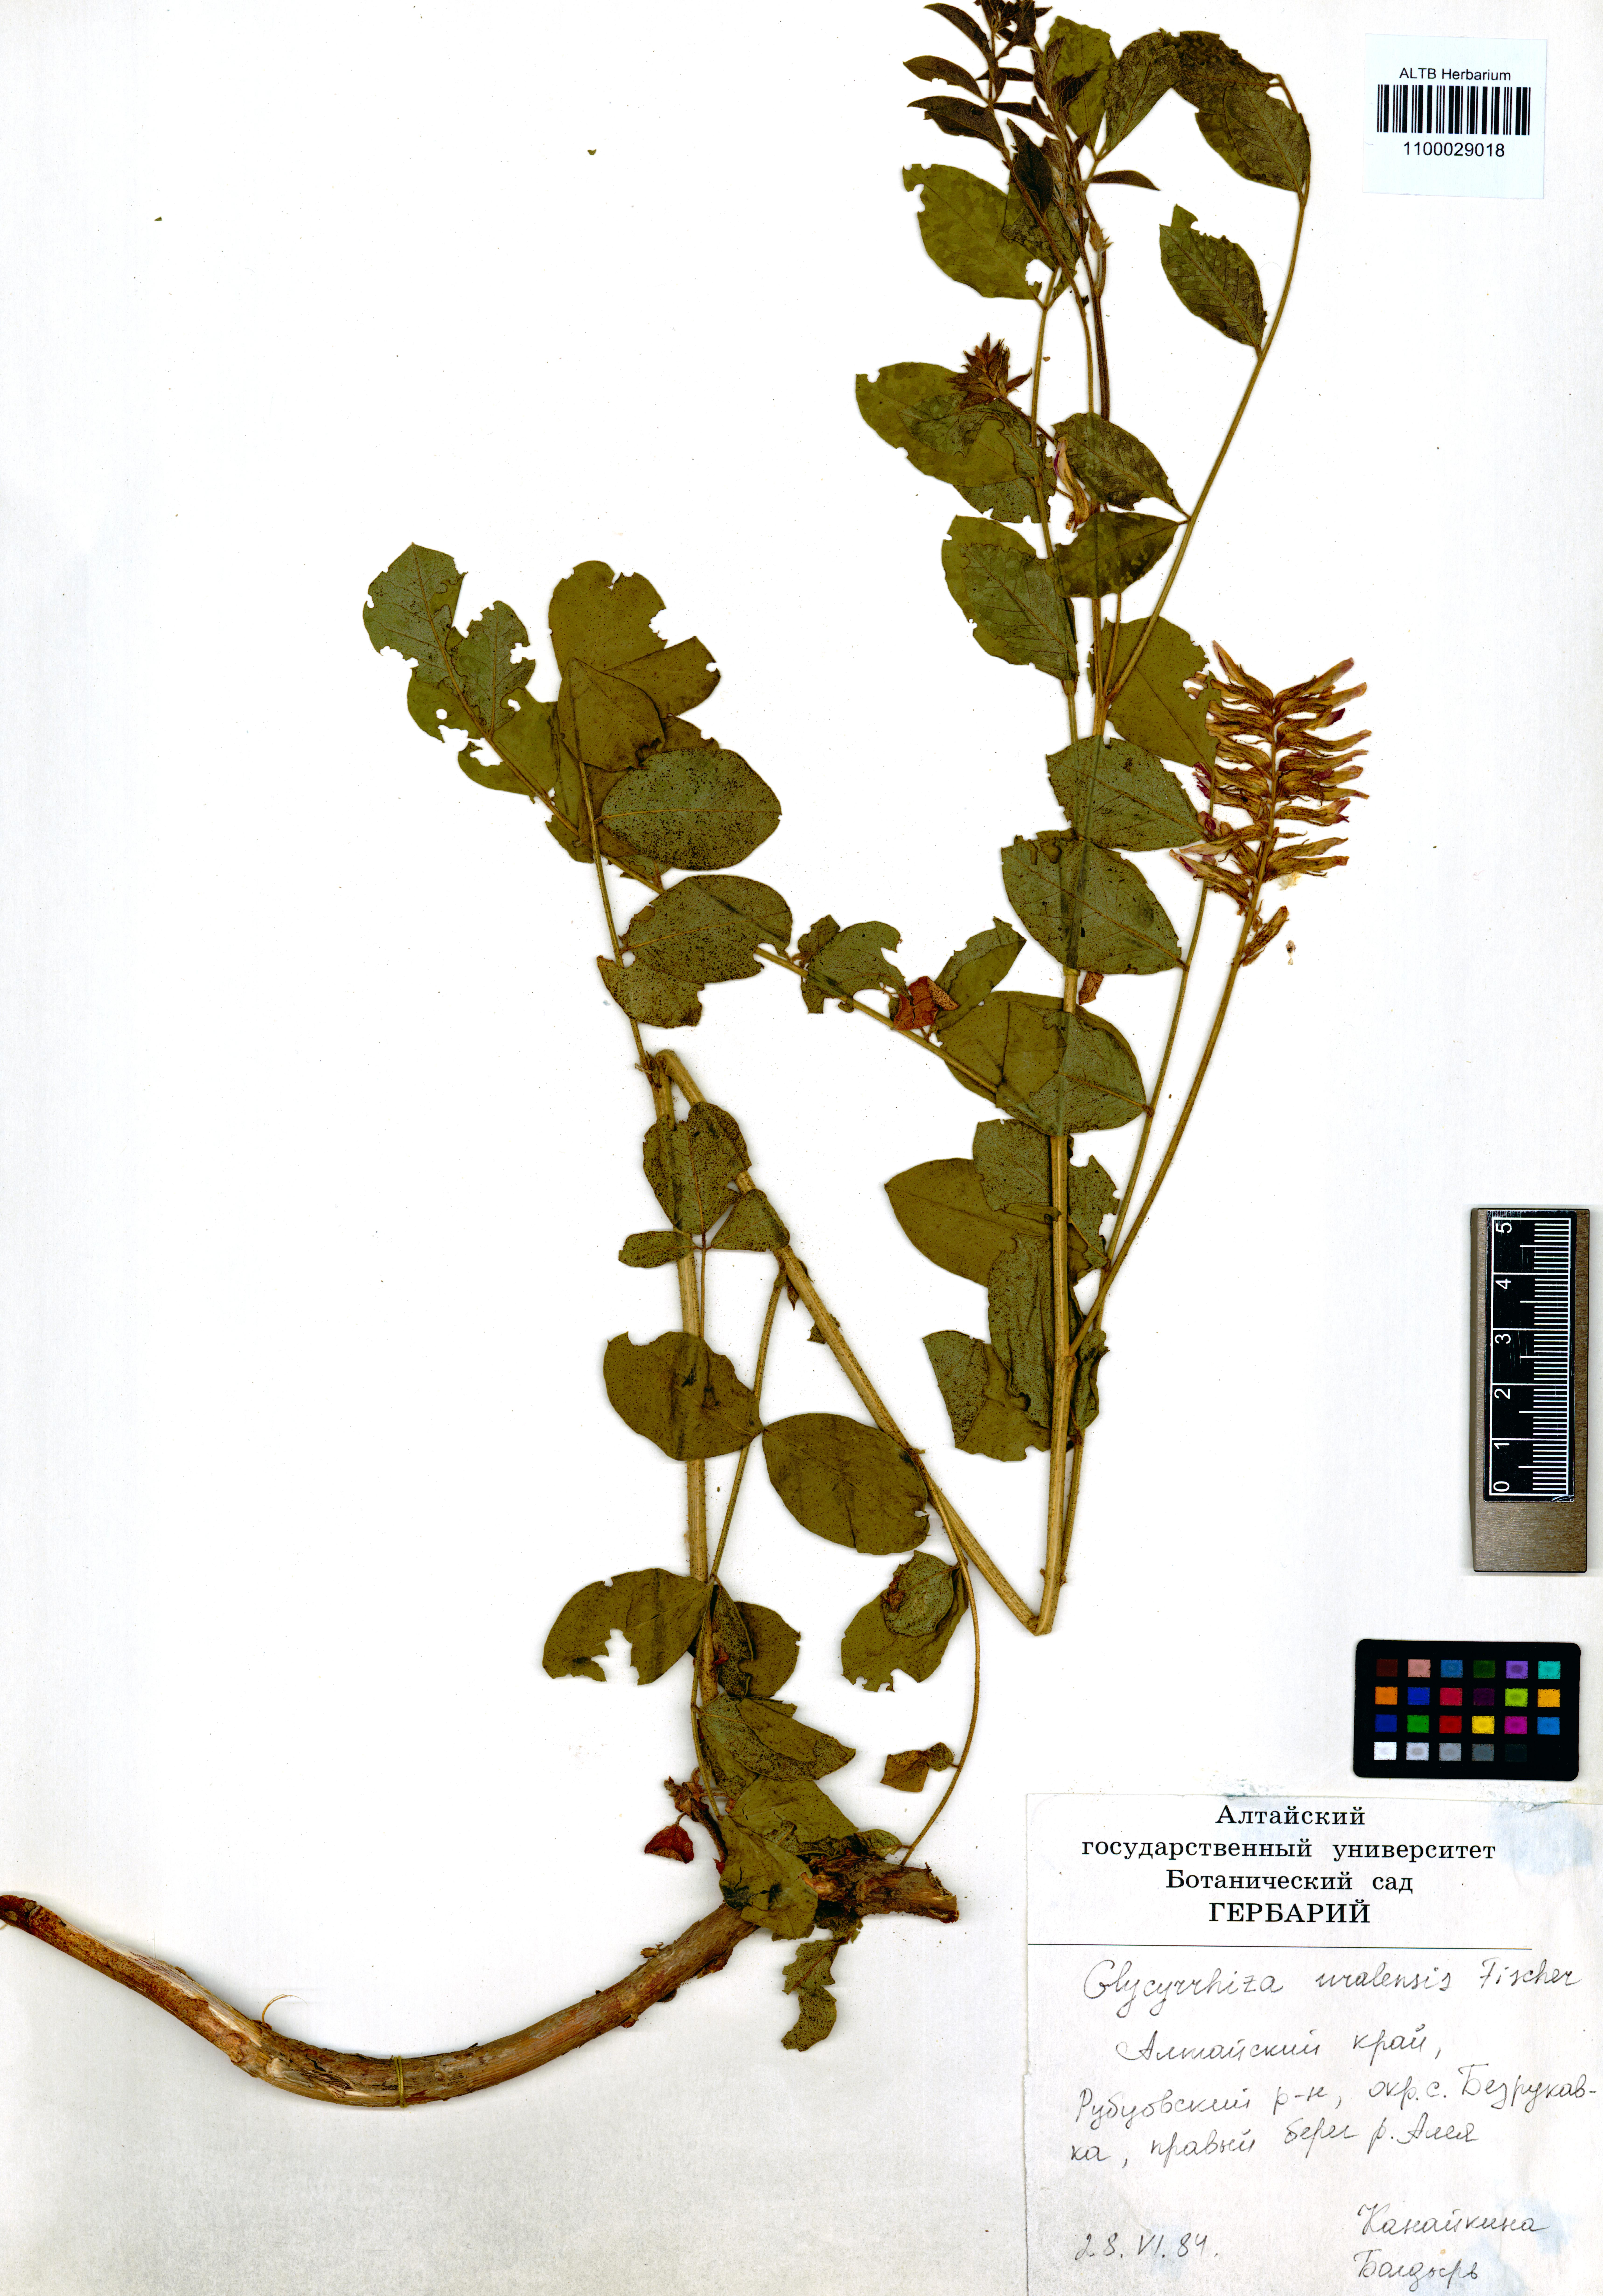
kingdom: Plantae
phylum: Tracheophyta
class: Magnoliopsida
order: Fabales
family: Fabaceae
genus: Glycyrrhiza
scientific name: Glycyrrhiza uralensis
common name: Chinese licorice
